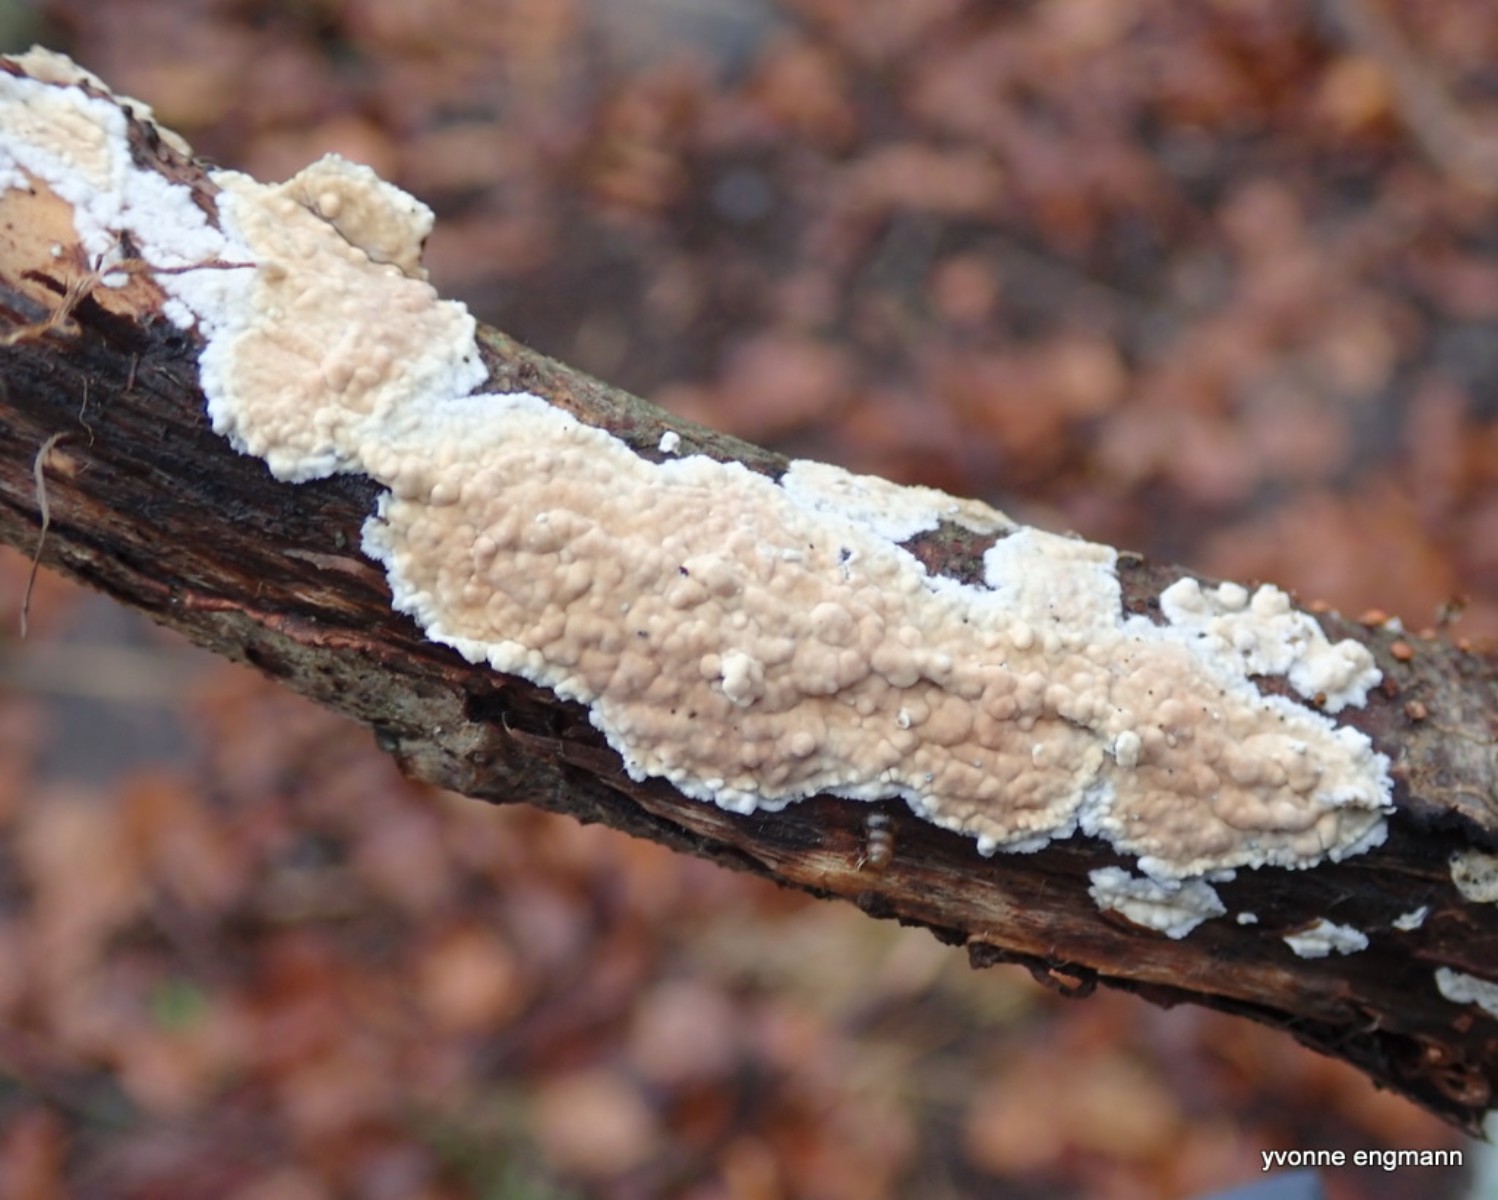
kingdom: Fungi
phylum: Basidiomycota
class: Agaricomycetes
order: Agaricales
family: Physalacriaceae
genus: Cylindrobasidium
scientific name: Cylindrobasidium evolvens
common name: sprækkehinde
